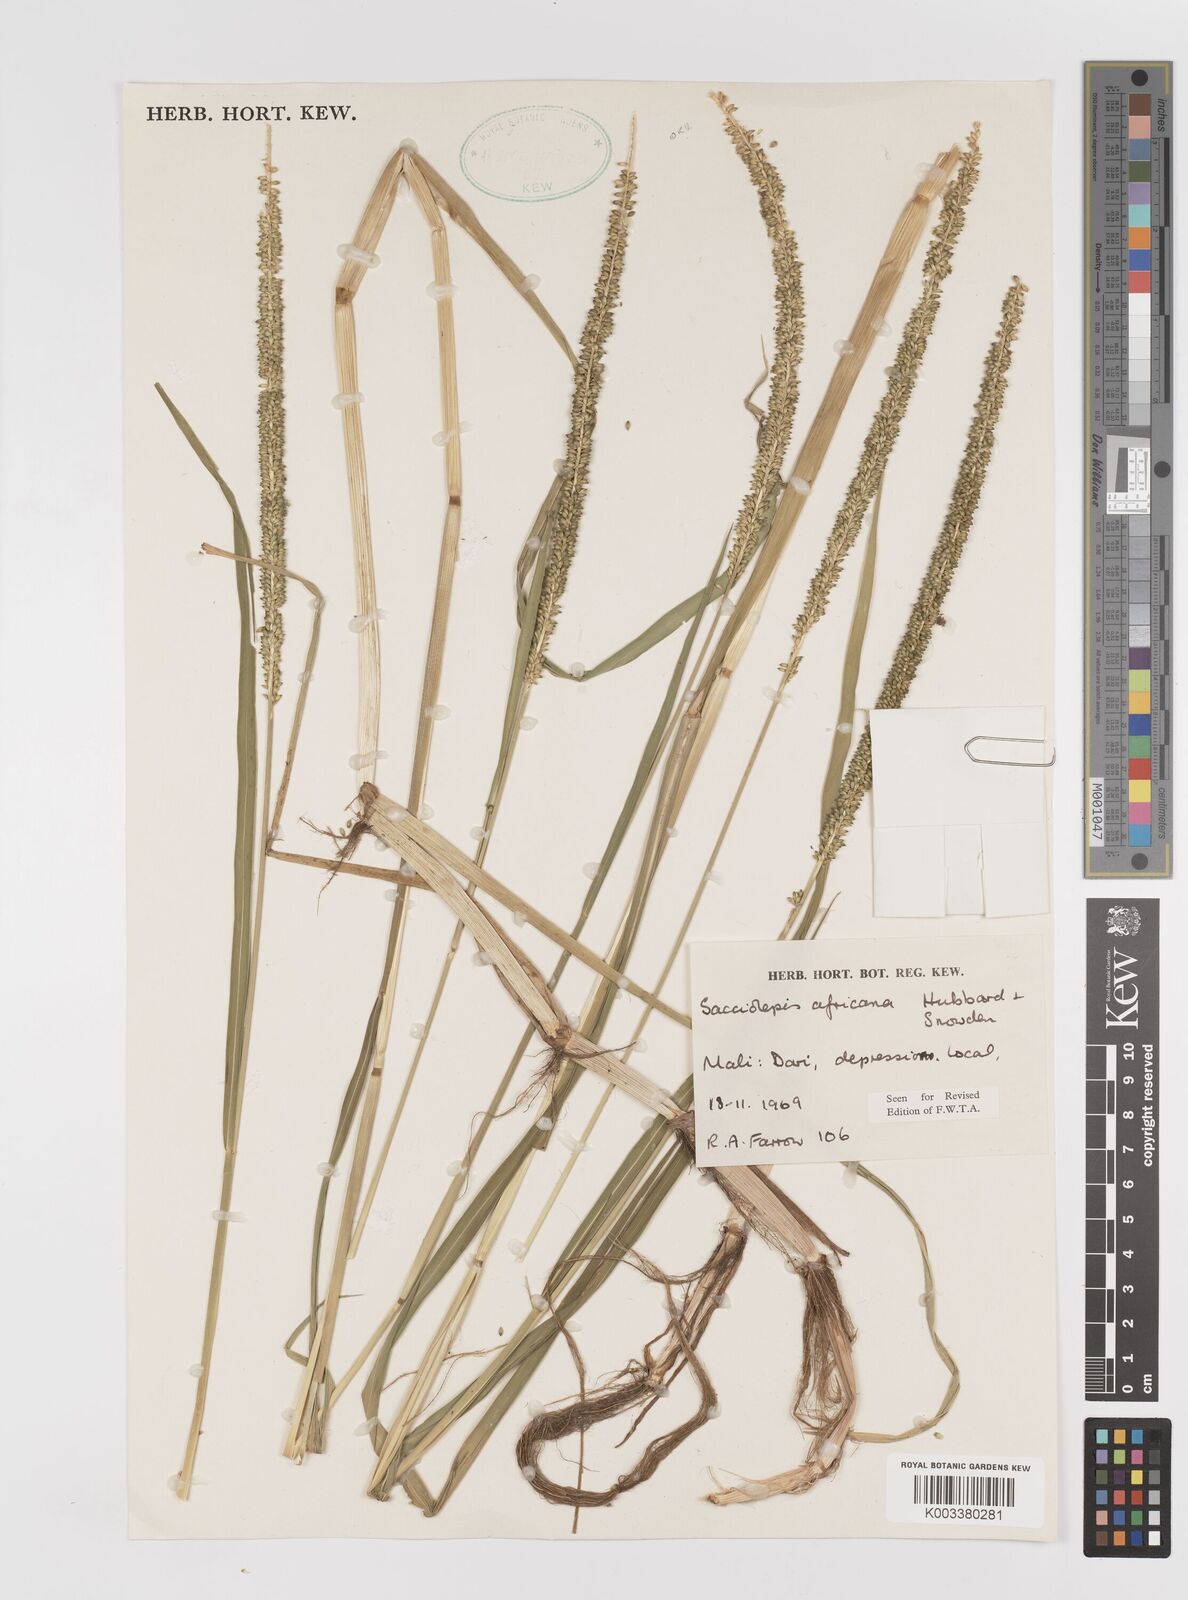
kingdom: Plantae
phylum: Tracheophyta
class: Liliopsida
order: Poales
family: Poaceae
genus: Sacciolepis
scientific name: Sacciolepis africana
